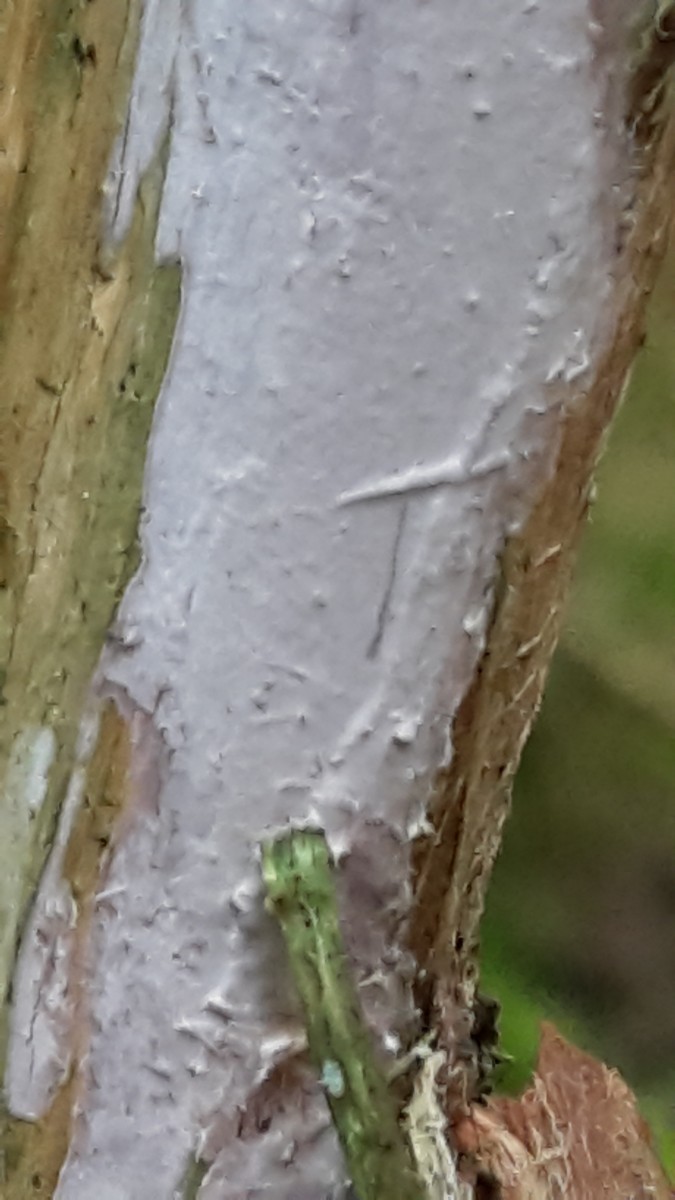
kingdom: Fungi
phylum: Basidiomycota
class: Agaricomycetes
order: Russulales
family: Echinodontiaceae
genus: Amylostereum
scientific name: Amylostereum laevigatum
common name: ene-lædersvamp
